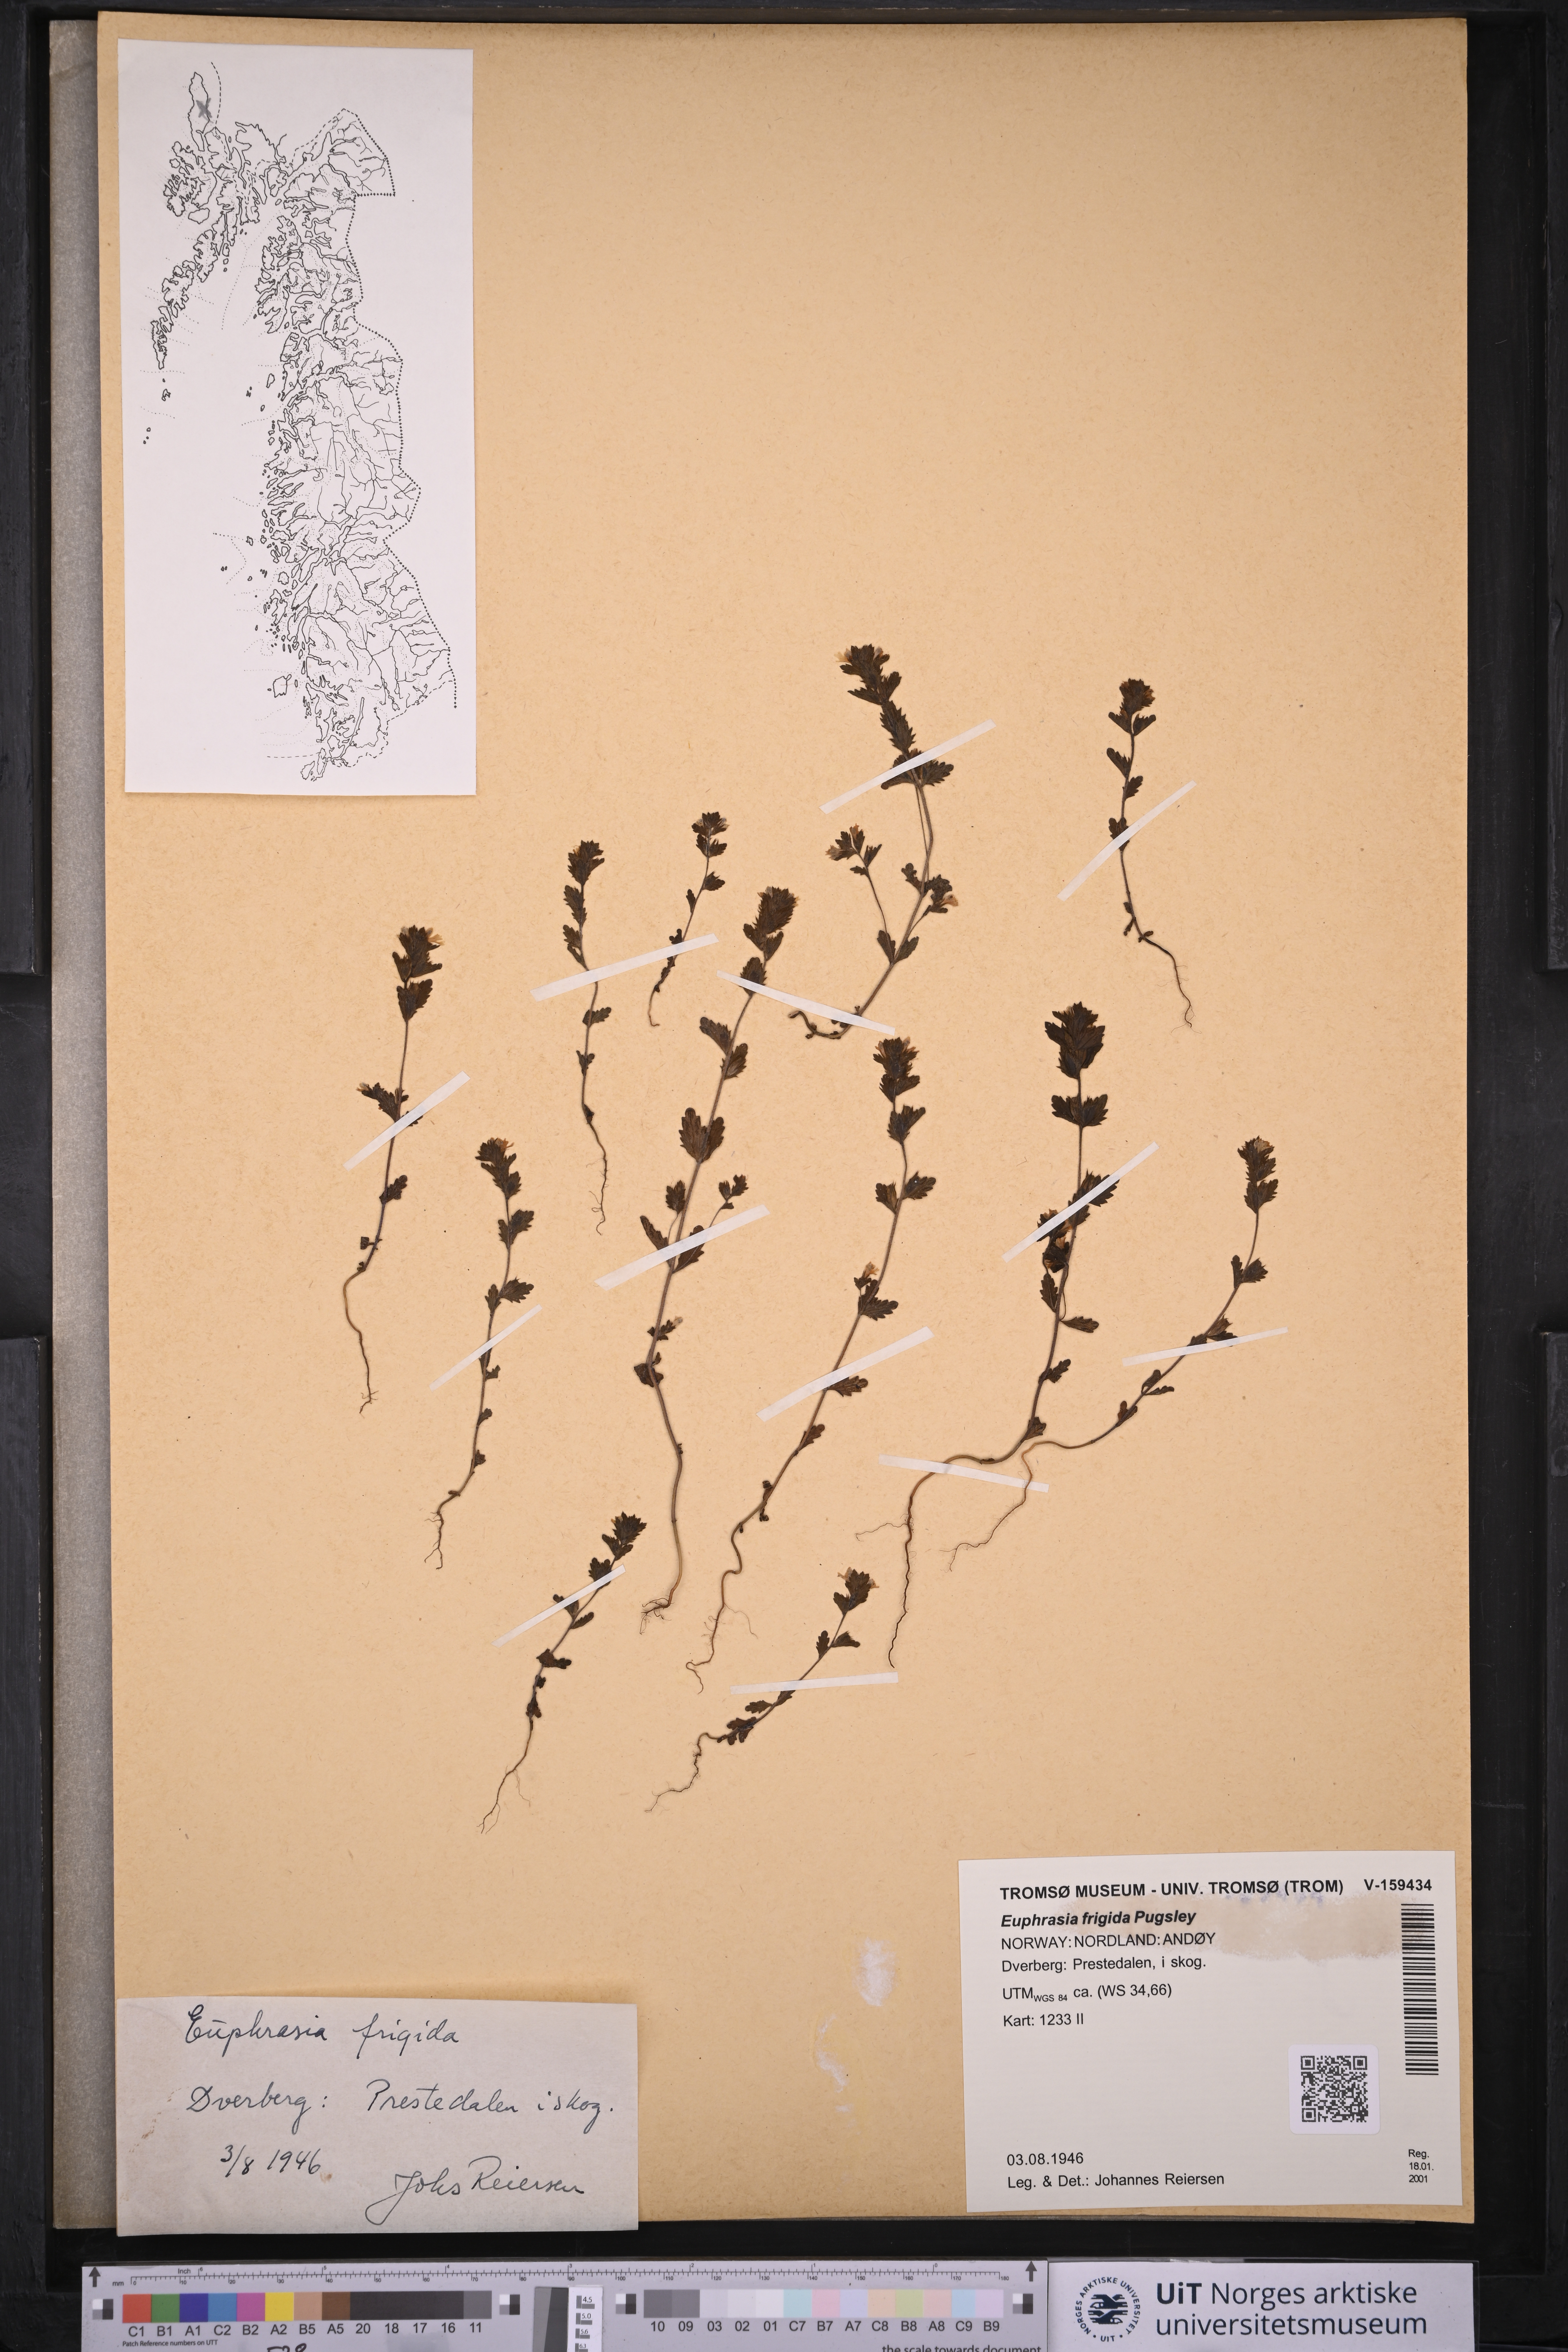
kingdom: Plantae
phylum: Tracheophyta
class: Magnoliopsida
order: Lamiales
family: Orobanchaceae
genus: Euphrasia
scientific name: Euphrasia frigida
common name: An eyebright
